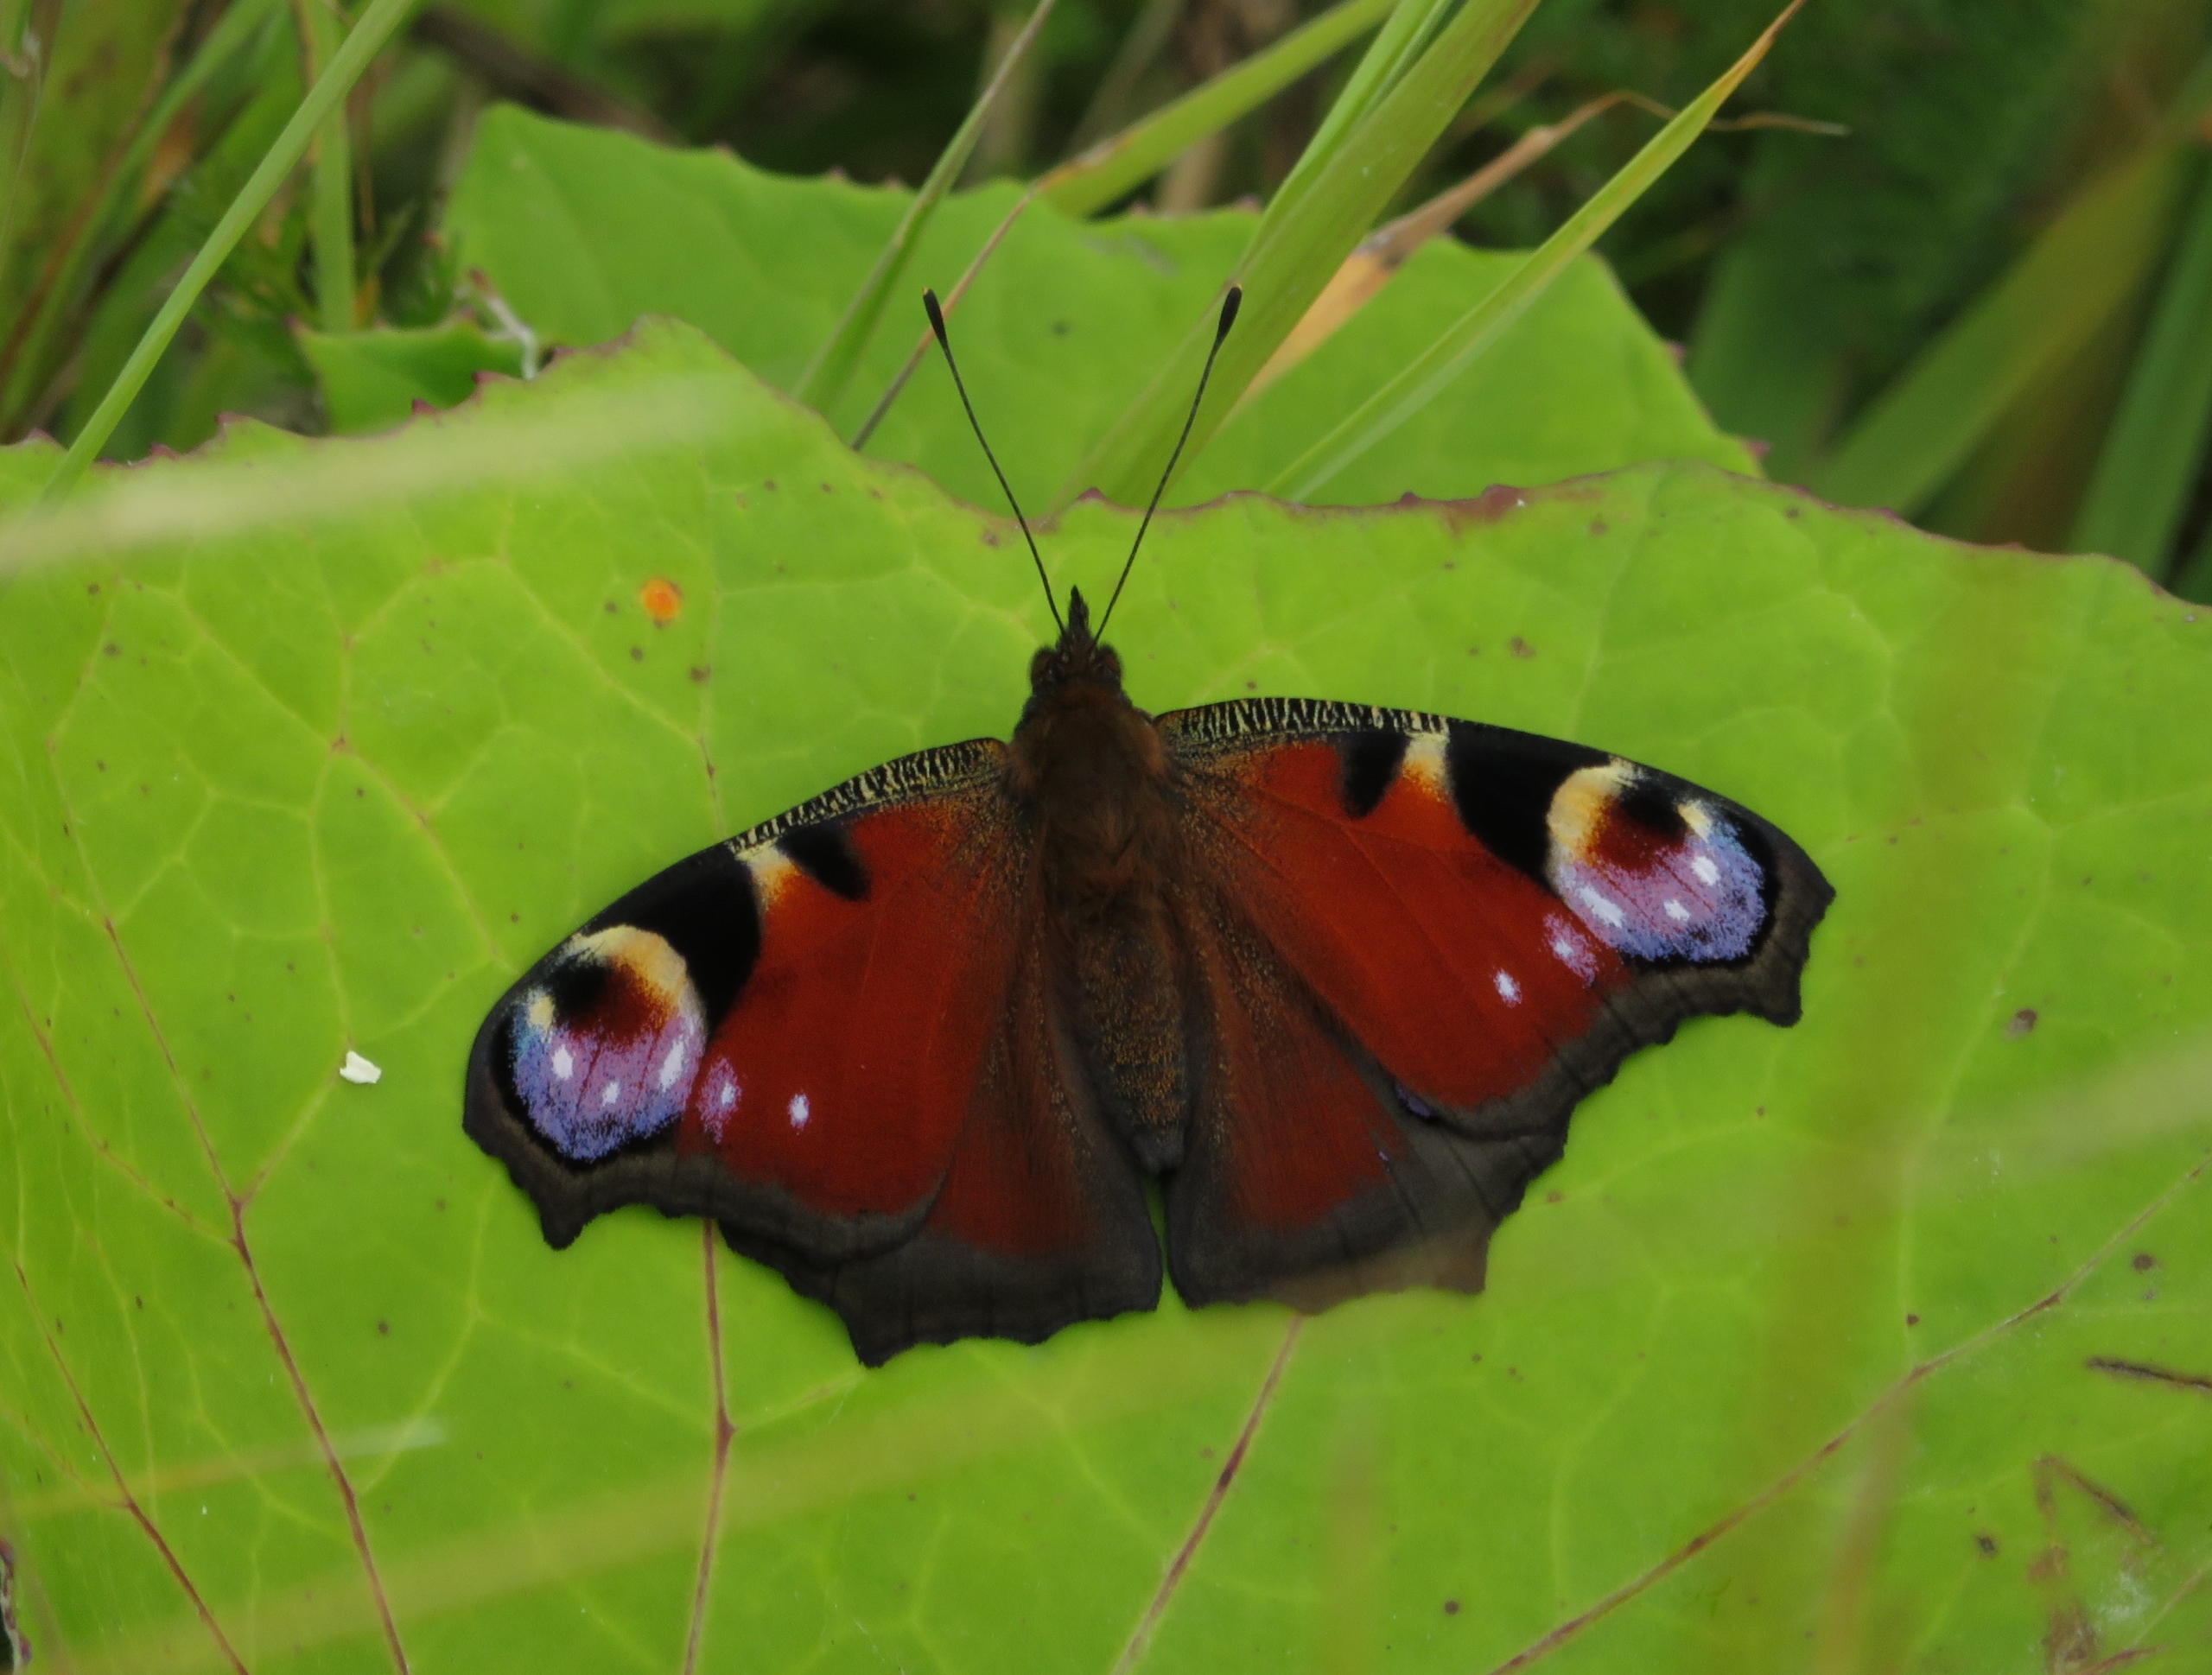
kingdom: Animalia
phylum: Arthropoda
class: Insecta
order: Lepidoptera
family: Nymphalidae
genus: Aglais
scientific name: Aglais io
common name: Dagpåfugleøje
